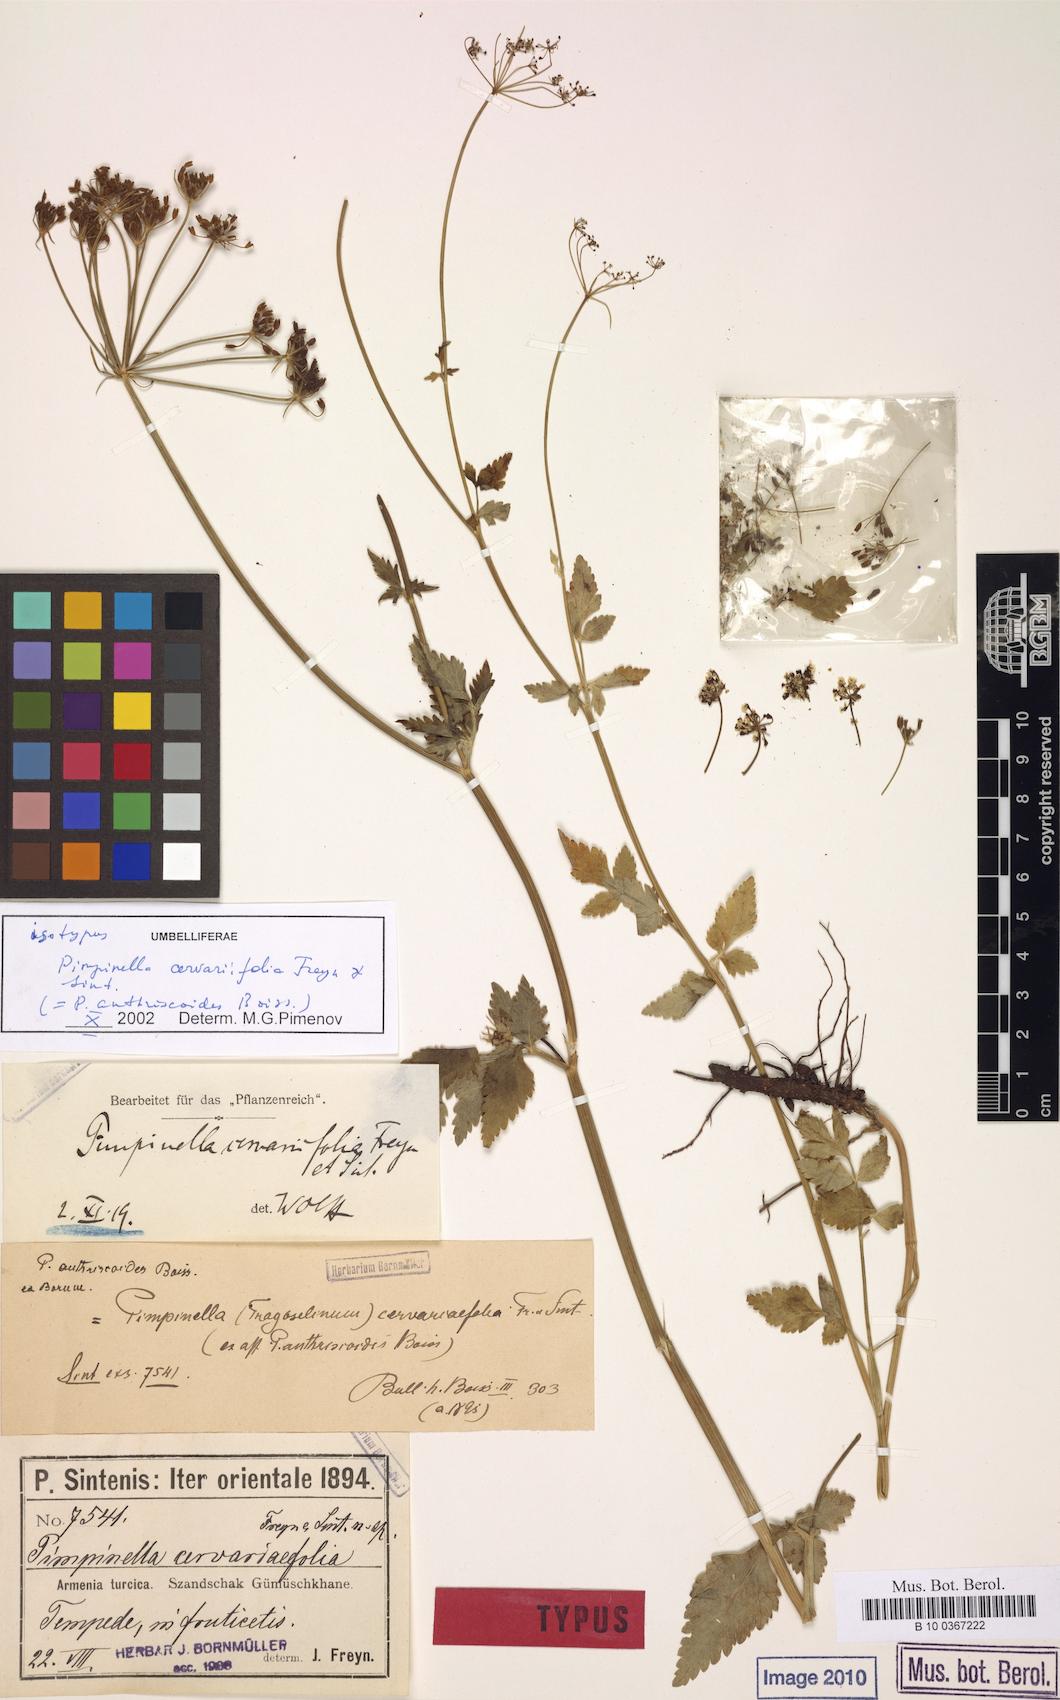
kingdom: Plantae
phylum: Tracheophyta
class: Magnoliopsida
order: Apiales
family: Apiaceae
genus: Aegopodium
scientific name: Aegopodium tribracteolatum
